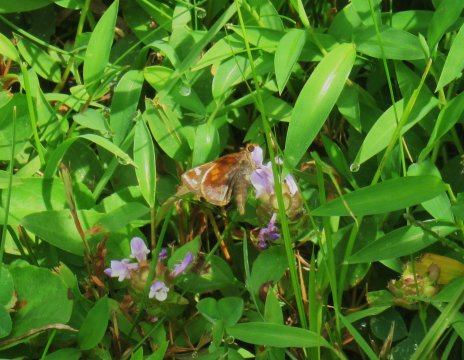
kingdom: Animalia
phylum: Arthropoda
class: Insecta
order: Lepidoptera
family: Hesperiidae
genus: Lon
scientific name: Lon zabulon
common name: Zabulon Skipper
